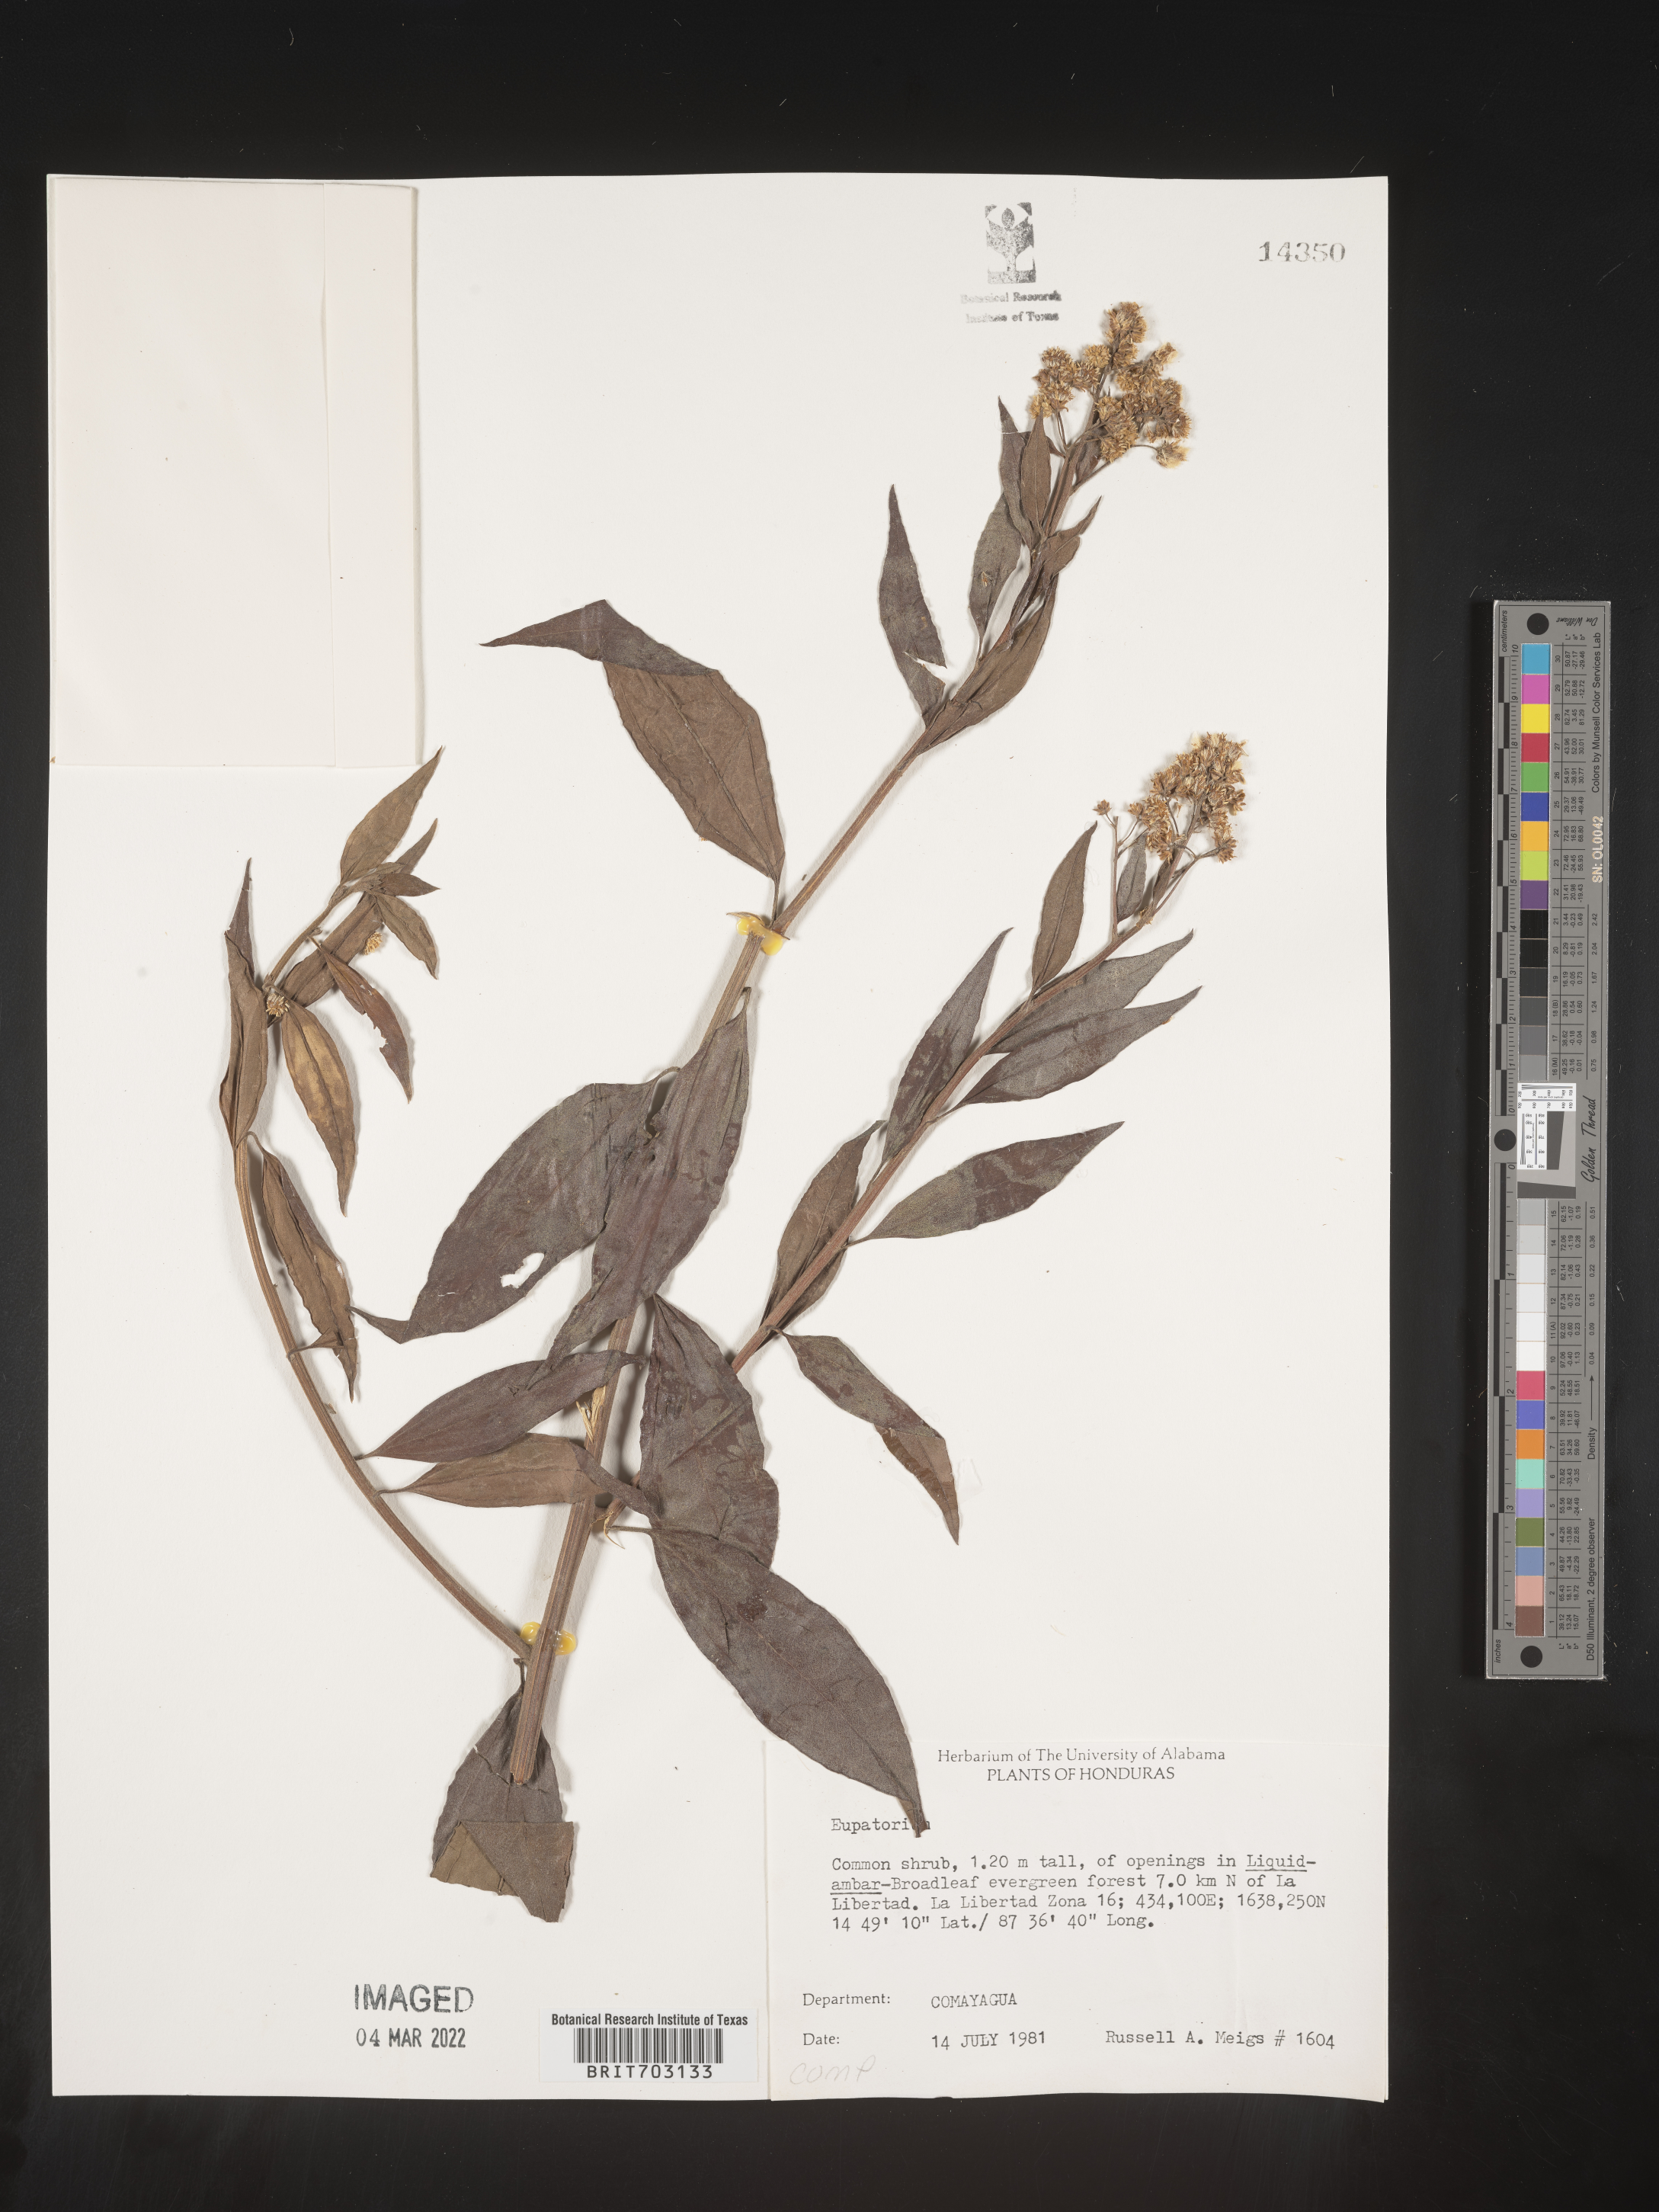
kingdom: Plantae
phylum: Tracheophyta
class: Magnoliopsida
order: Asterales
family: Asteraceae
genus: Eupatorium
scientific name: Eupatorium
